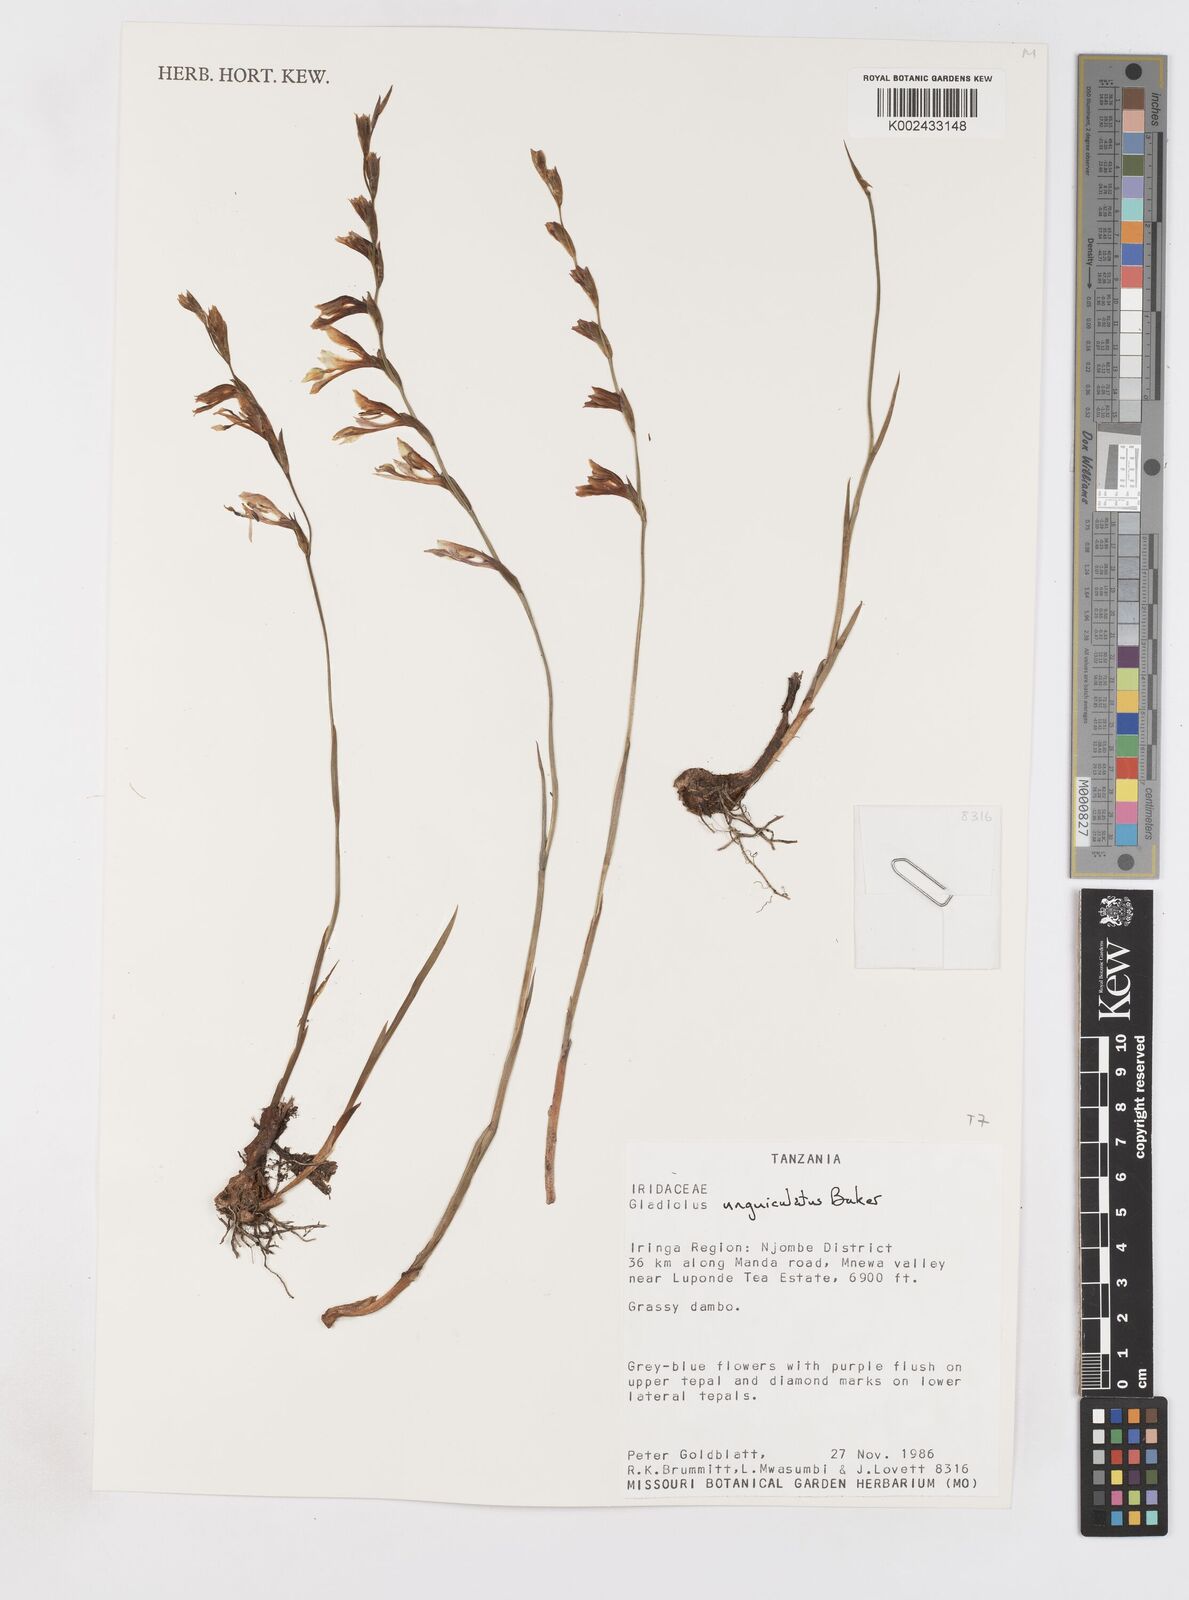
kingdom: Plantae
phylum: Tracheophyta
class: Liliopsida
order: Asparagales
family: Iridaceae
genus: Gladiolus
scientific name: Gladiolus unguiculatus
